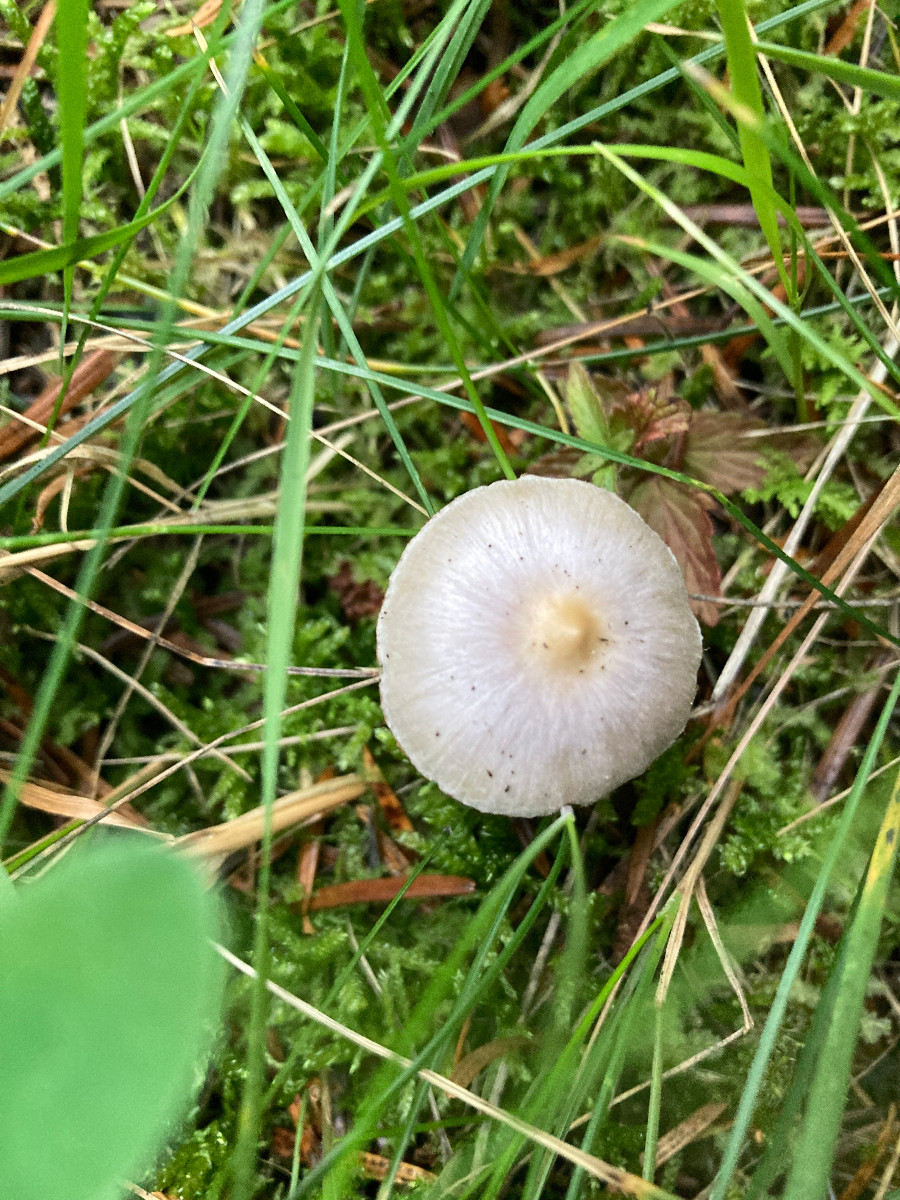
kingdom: Fungi
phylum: Basidiomycota
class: Agaricomycetes
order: Agaricales
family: Inocybaceae
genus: Inocybe
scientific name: Inocybe geophylla
